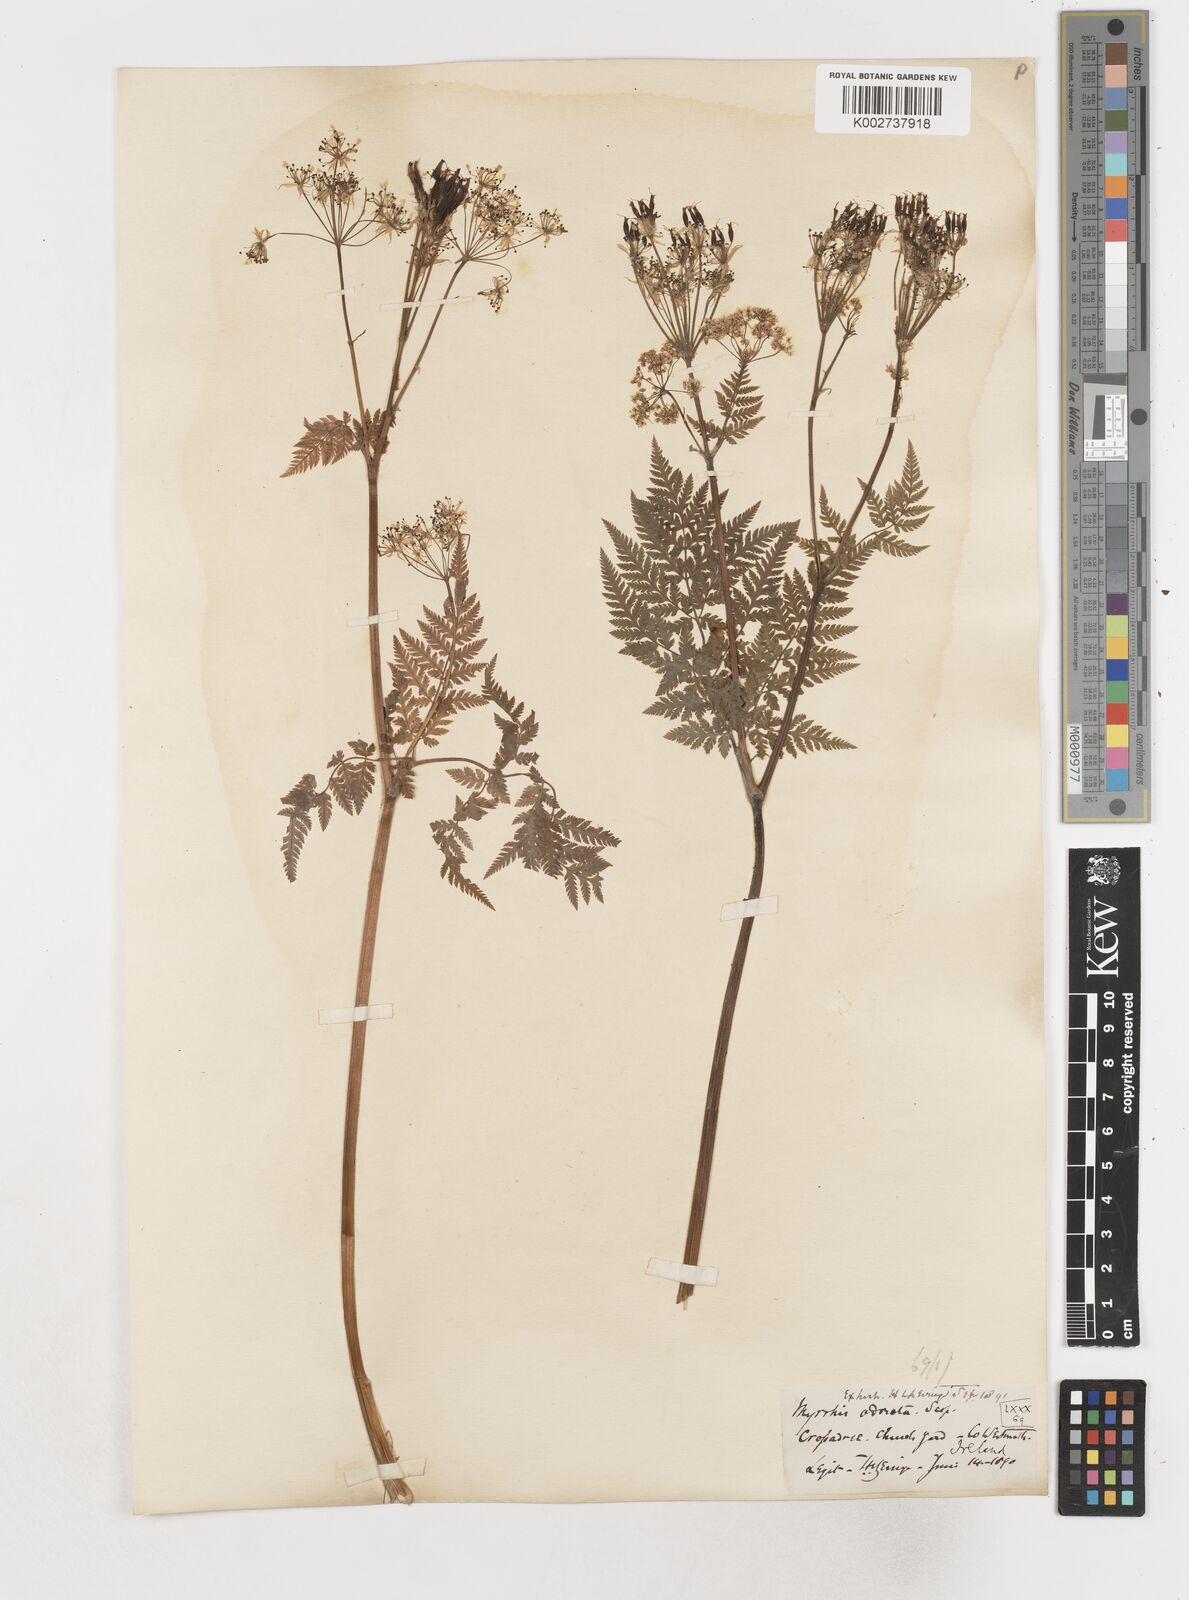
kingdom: Plantae
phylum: Tracheophyta
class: Magnoliopsida
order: Apiales
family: Apiaceae
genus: Myrrhis
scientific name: Myrrhis odorata
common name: Sweet cicely
